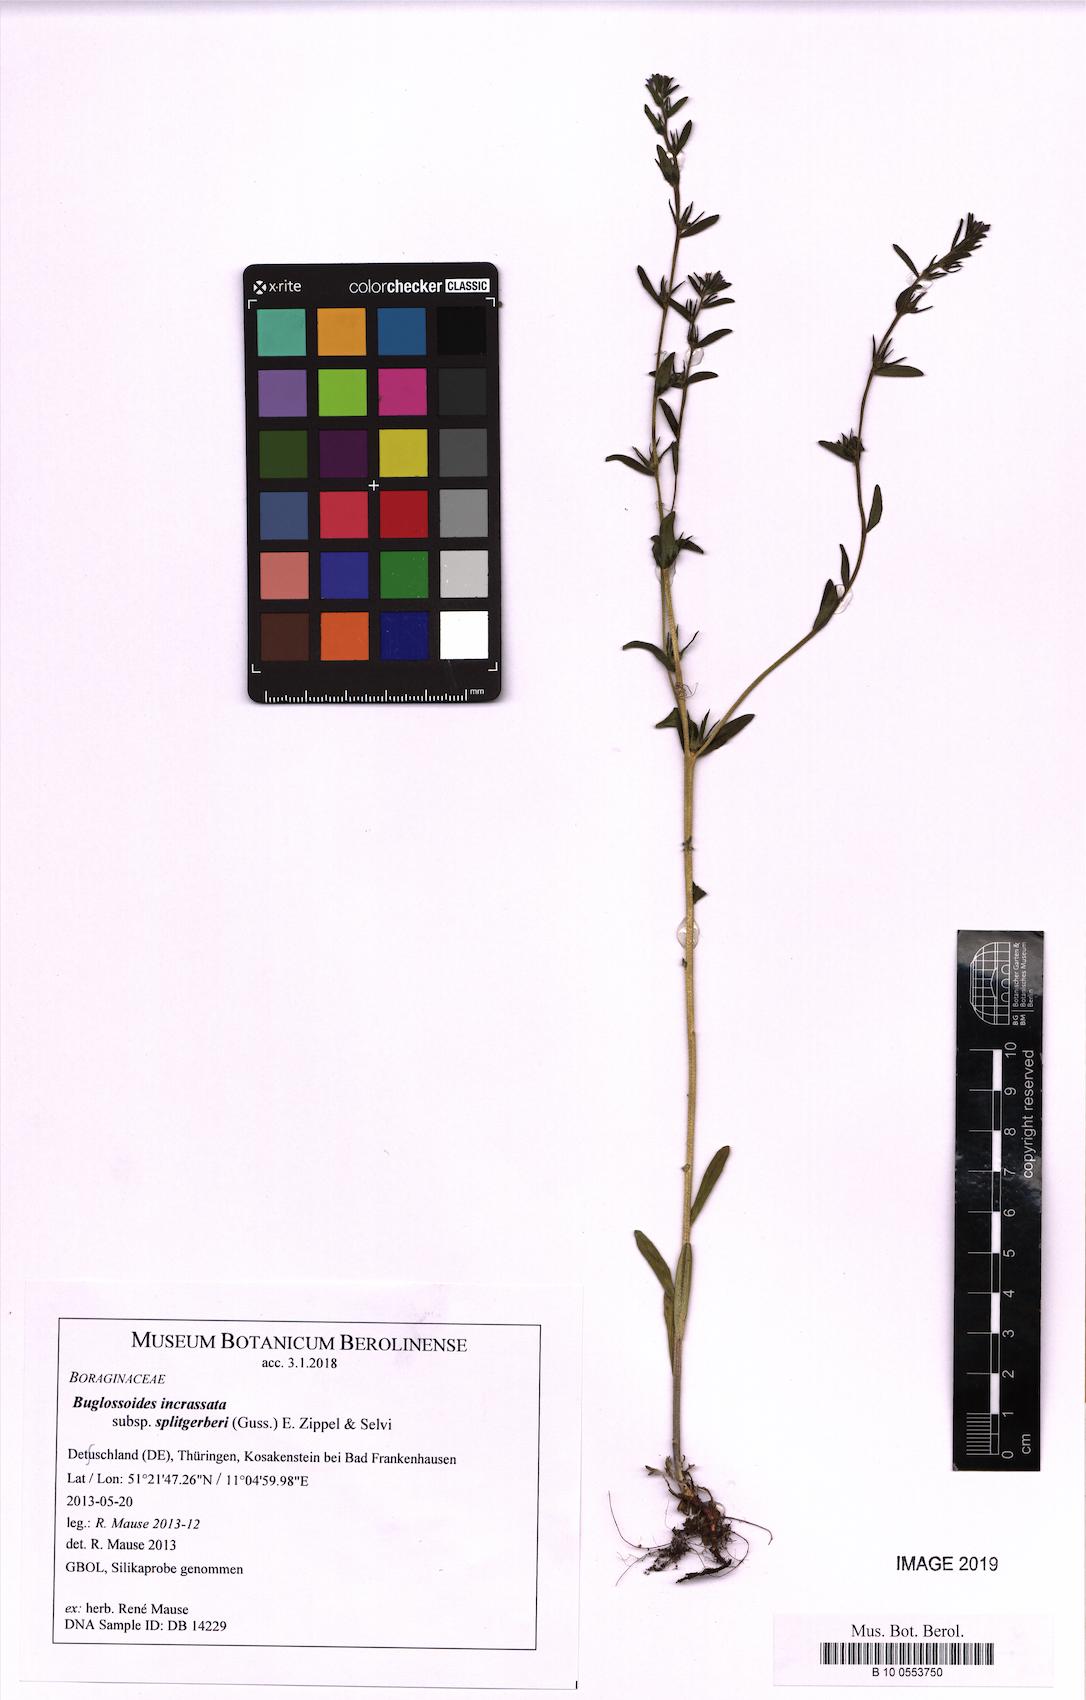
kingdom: Plantae
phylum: Tracheophyta
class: Magnoliopsida
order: Boraginales
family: Boraginaceae
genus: Buglossoides
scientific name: Buglossoides incrassata
